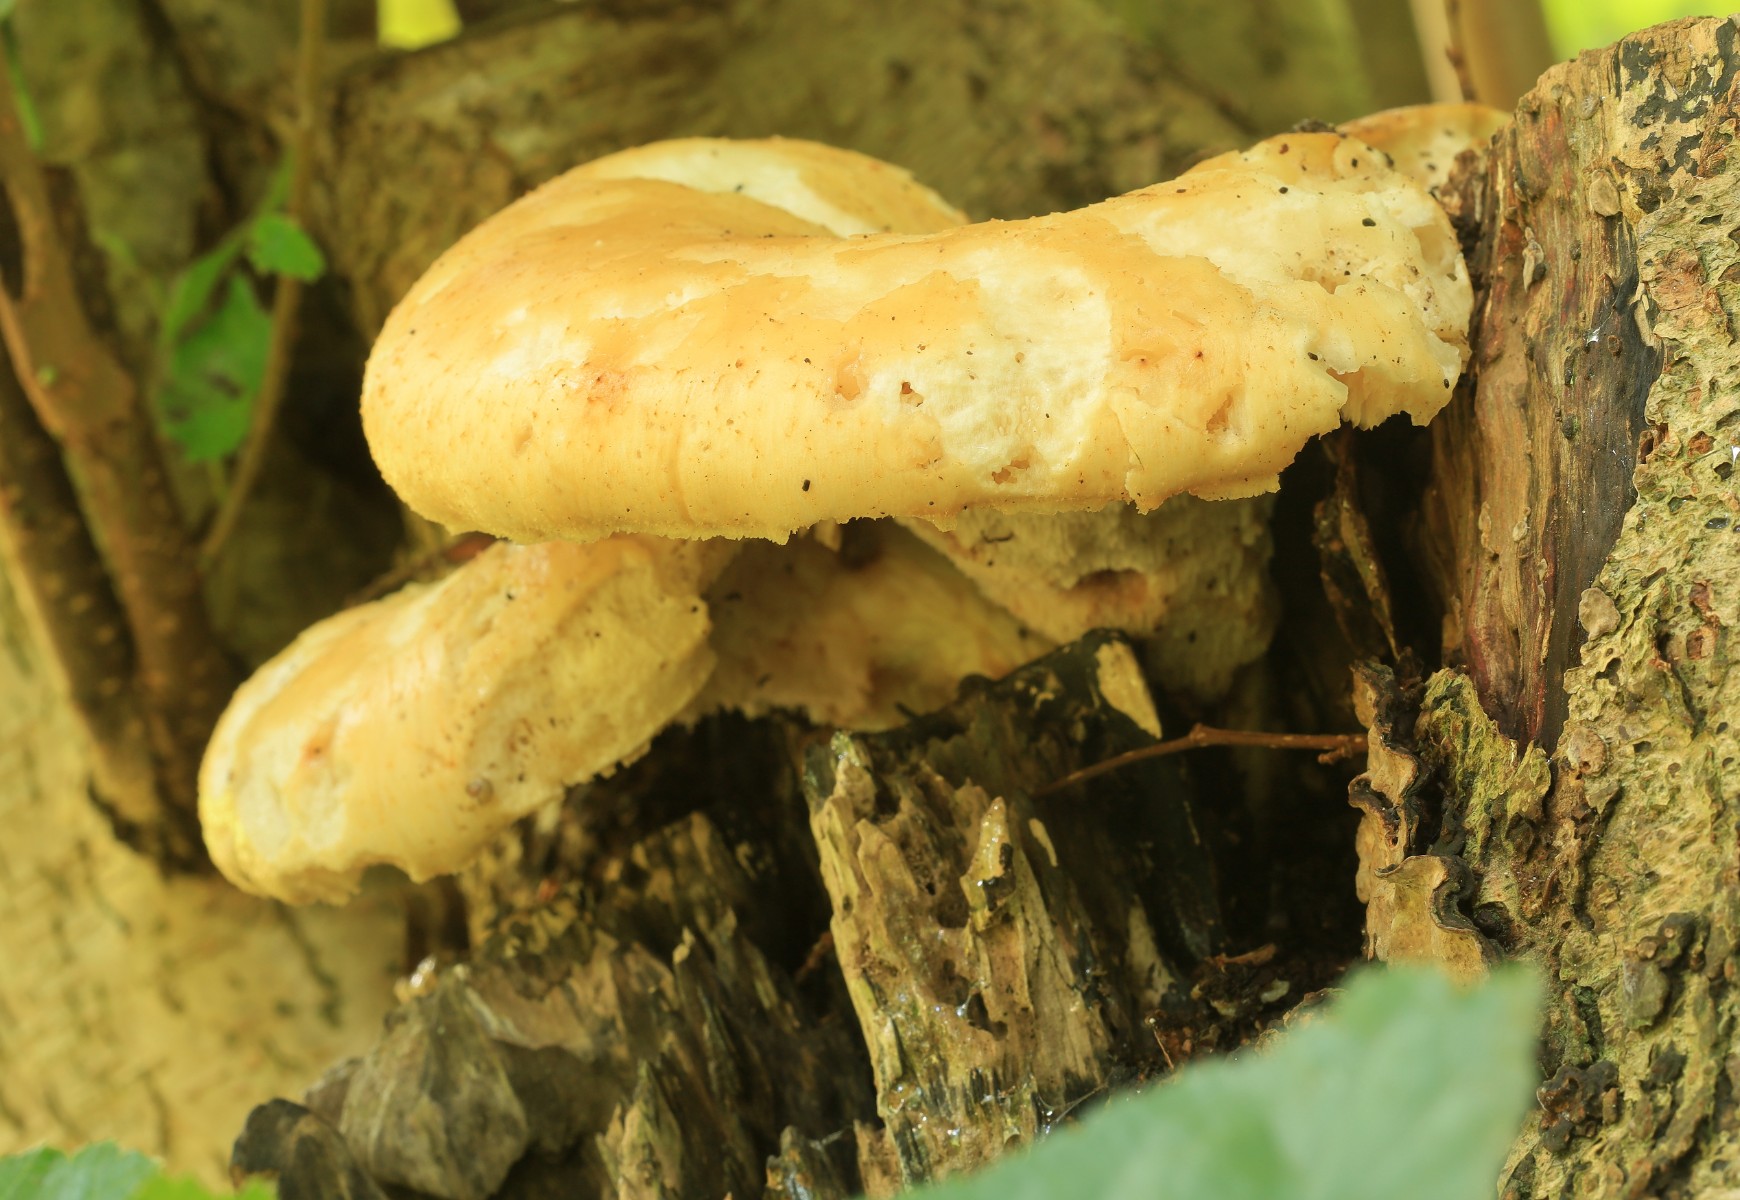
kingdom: Fungi
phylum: Basidiomycota
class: Agaricomycetes
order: Polyporales
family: Polyporaceae
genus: Polyporus
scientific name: Polyporus tuberaster
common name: knoldet stilkporesvamp
